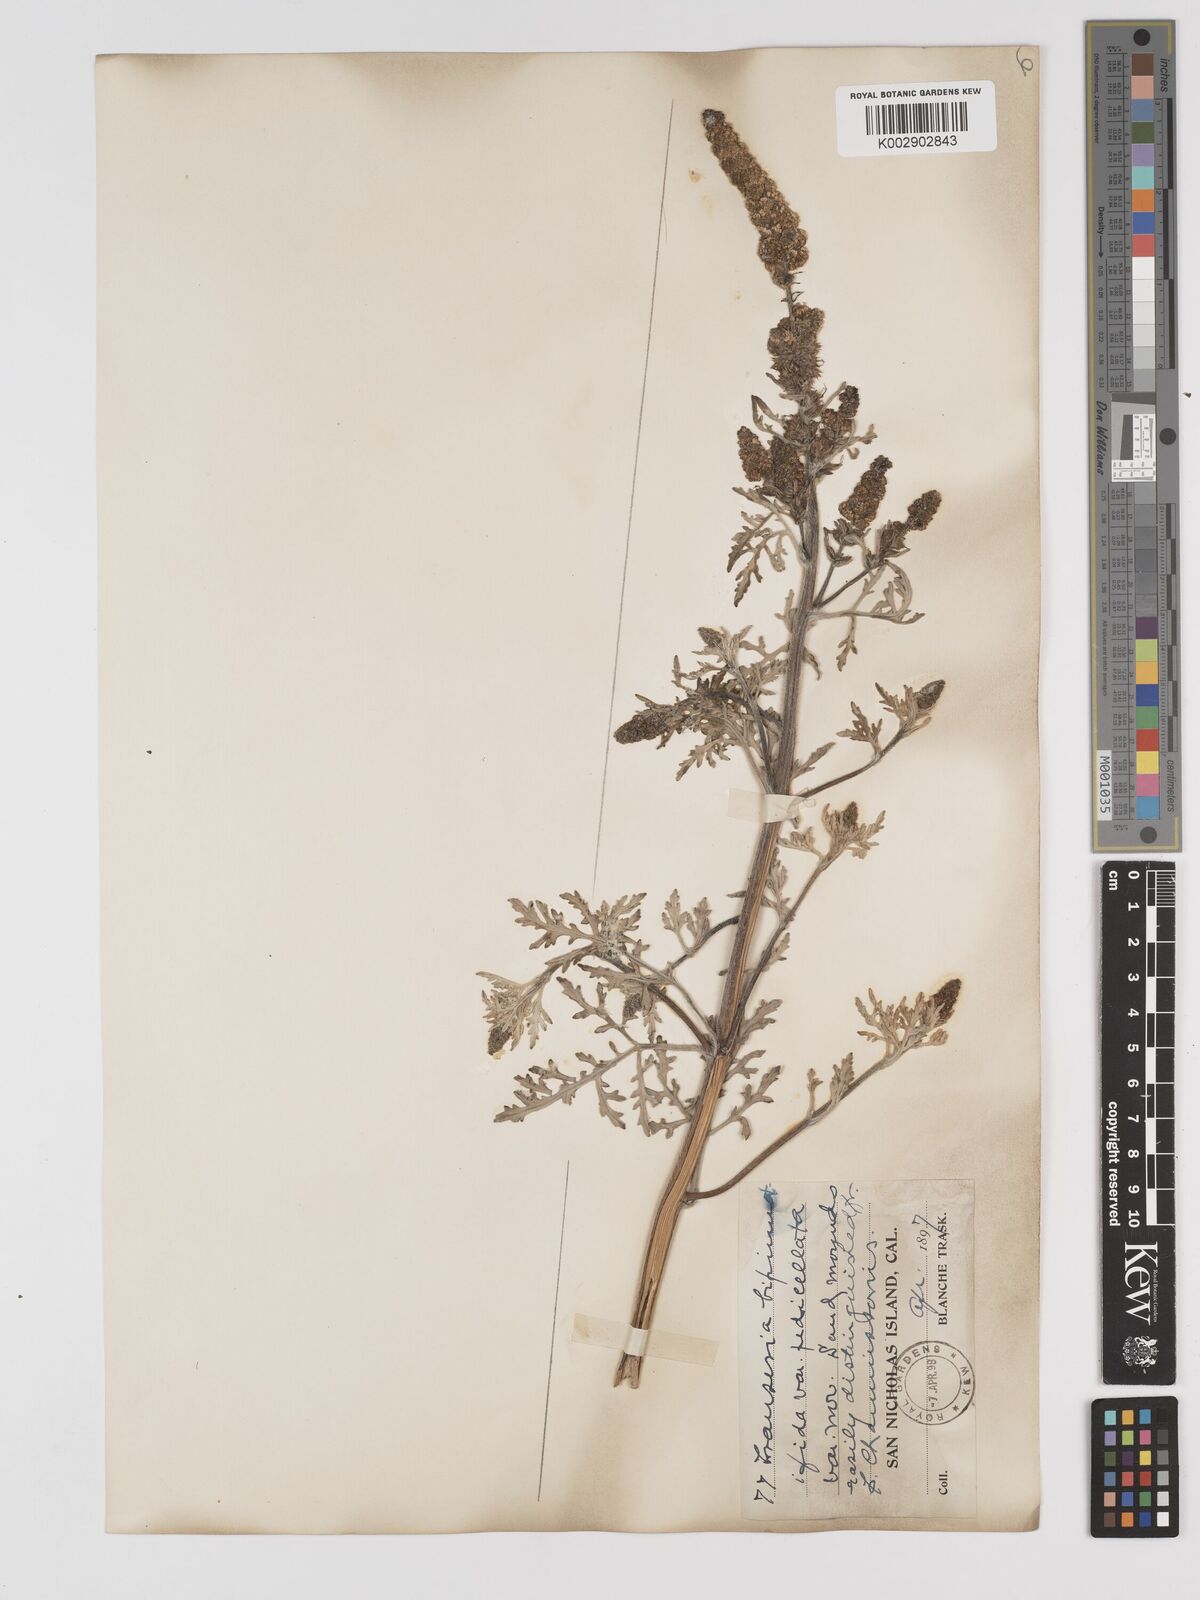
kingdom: Plantae
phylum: Tracheophyta
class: Magnoliopsida
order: Asterales
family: Asteraceae
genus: Ambrosia
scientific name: Ambrosia camphorata
